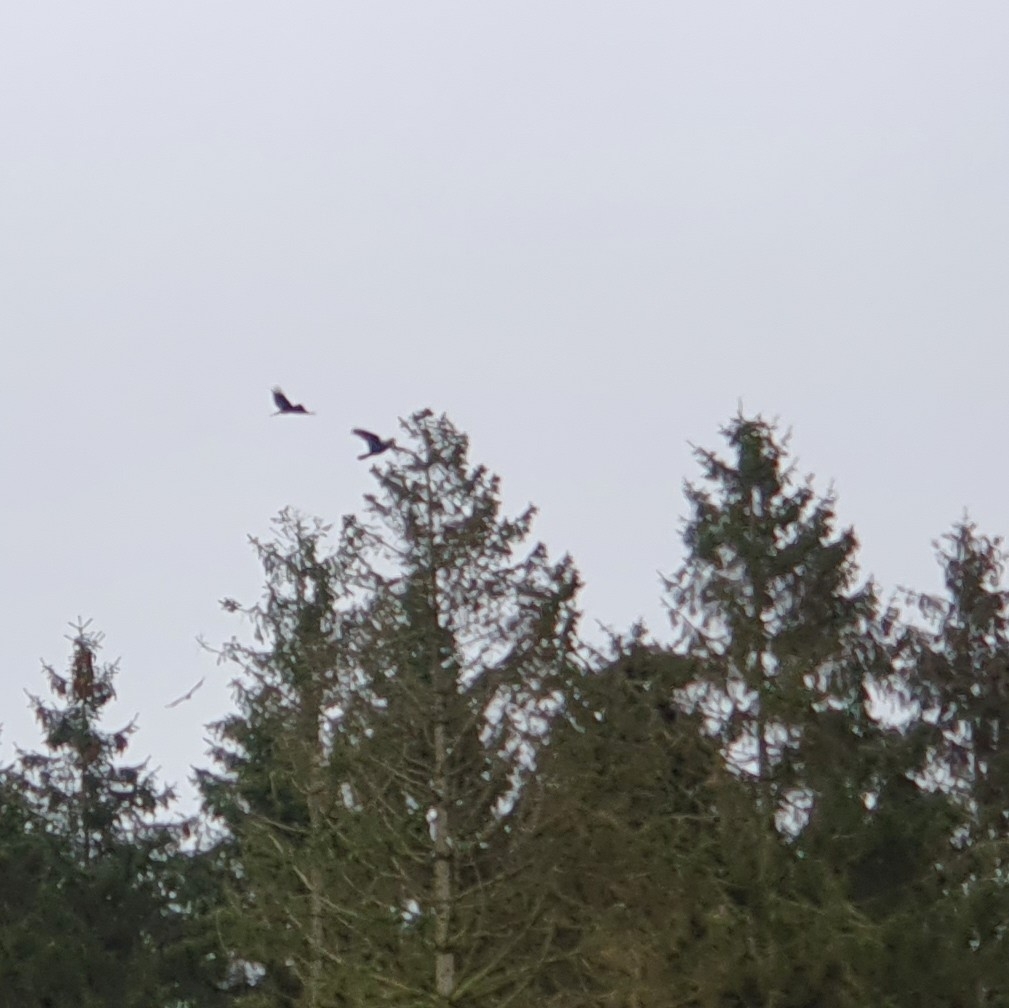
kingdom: Animalia
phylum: Chordata
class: Aves
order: Passeriformes
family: Corvidae
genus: Corvus
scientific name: Corvus corax
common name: Ravn
